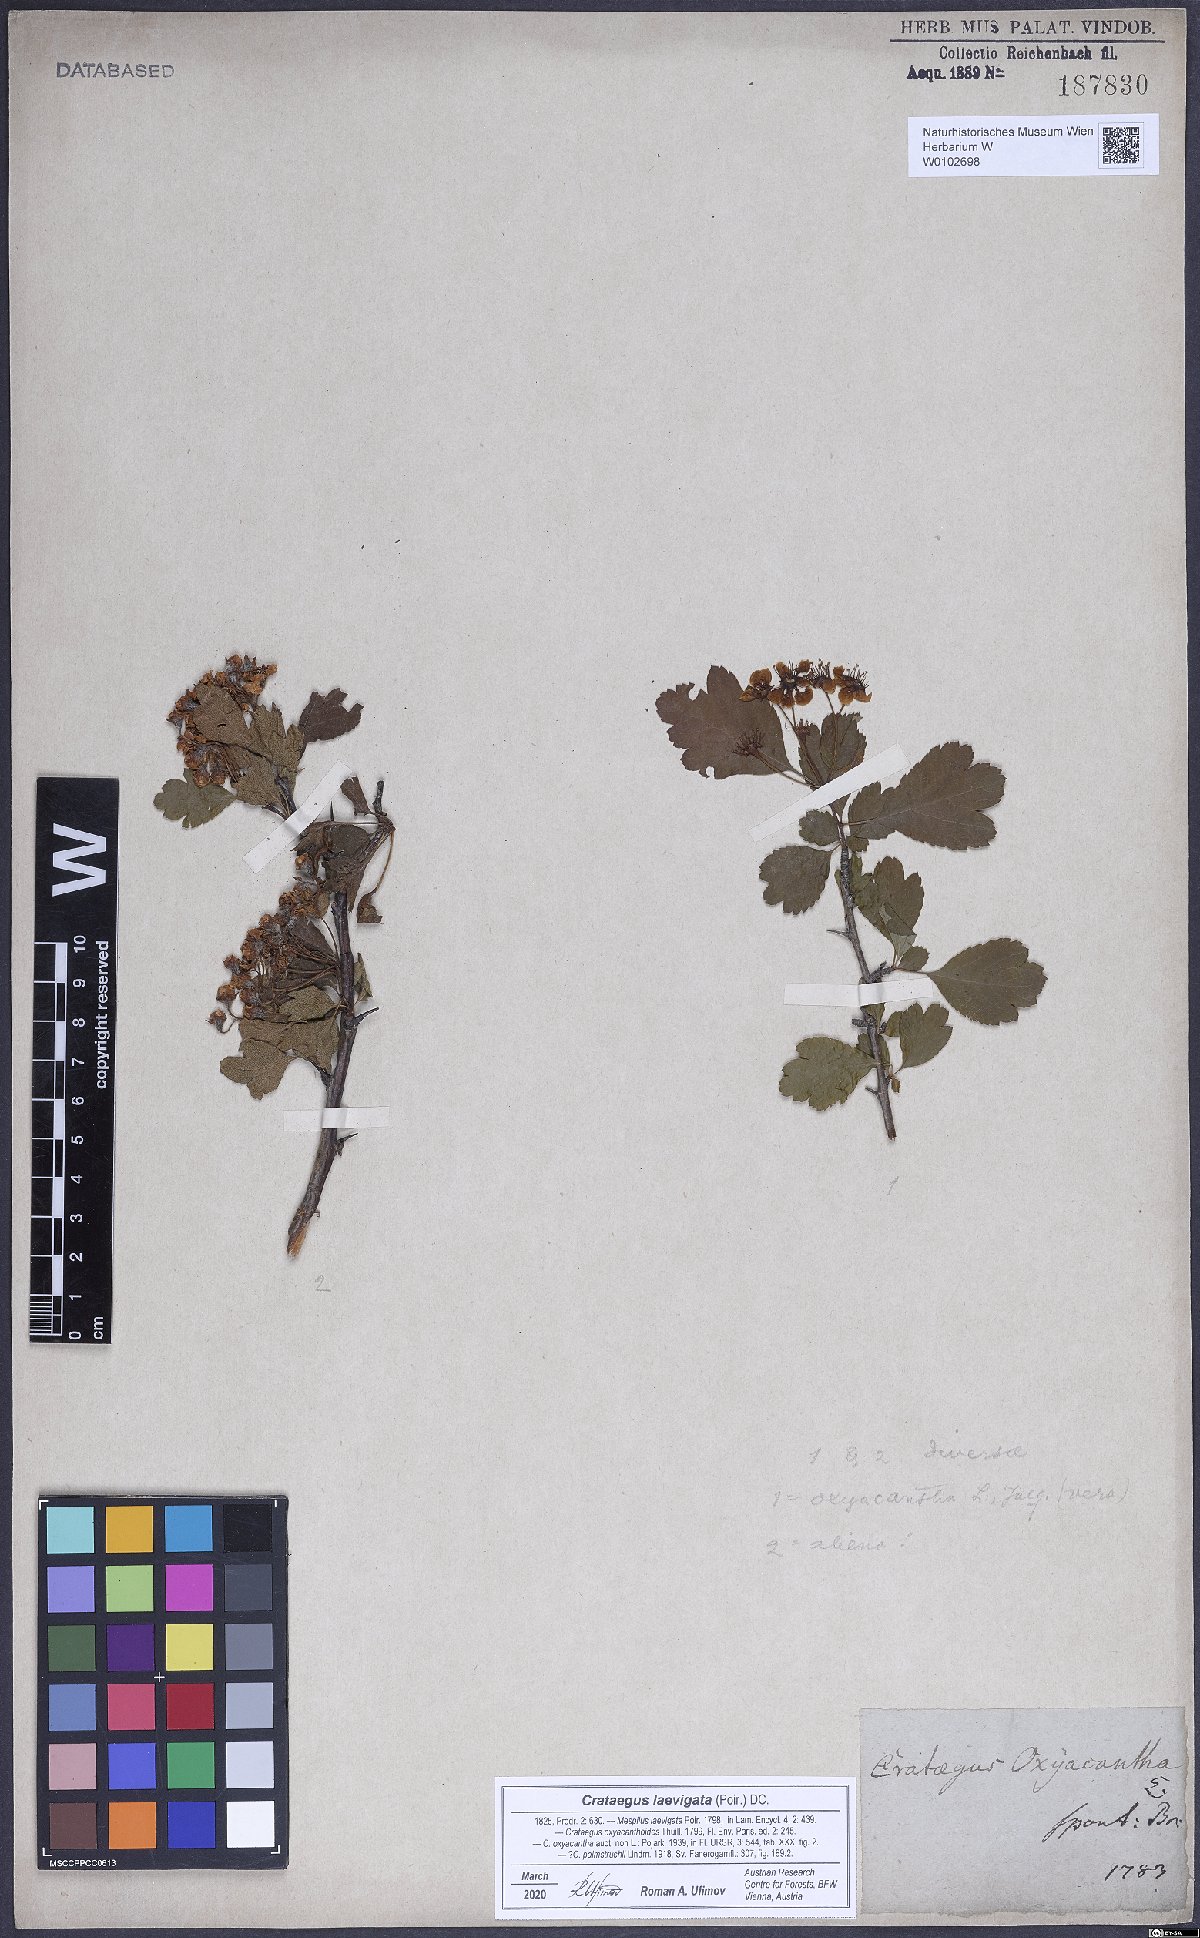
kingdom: Plantae
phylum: Tracheophyta
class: Magnoliopsida
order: Rosales
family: Rosaceae
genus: Crataegus
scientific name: Crataegus laevigata
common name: Midland hawthorn
